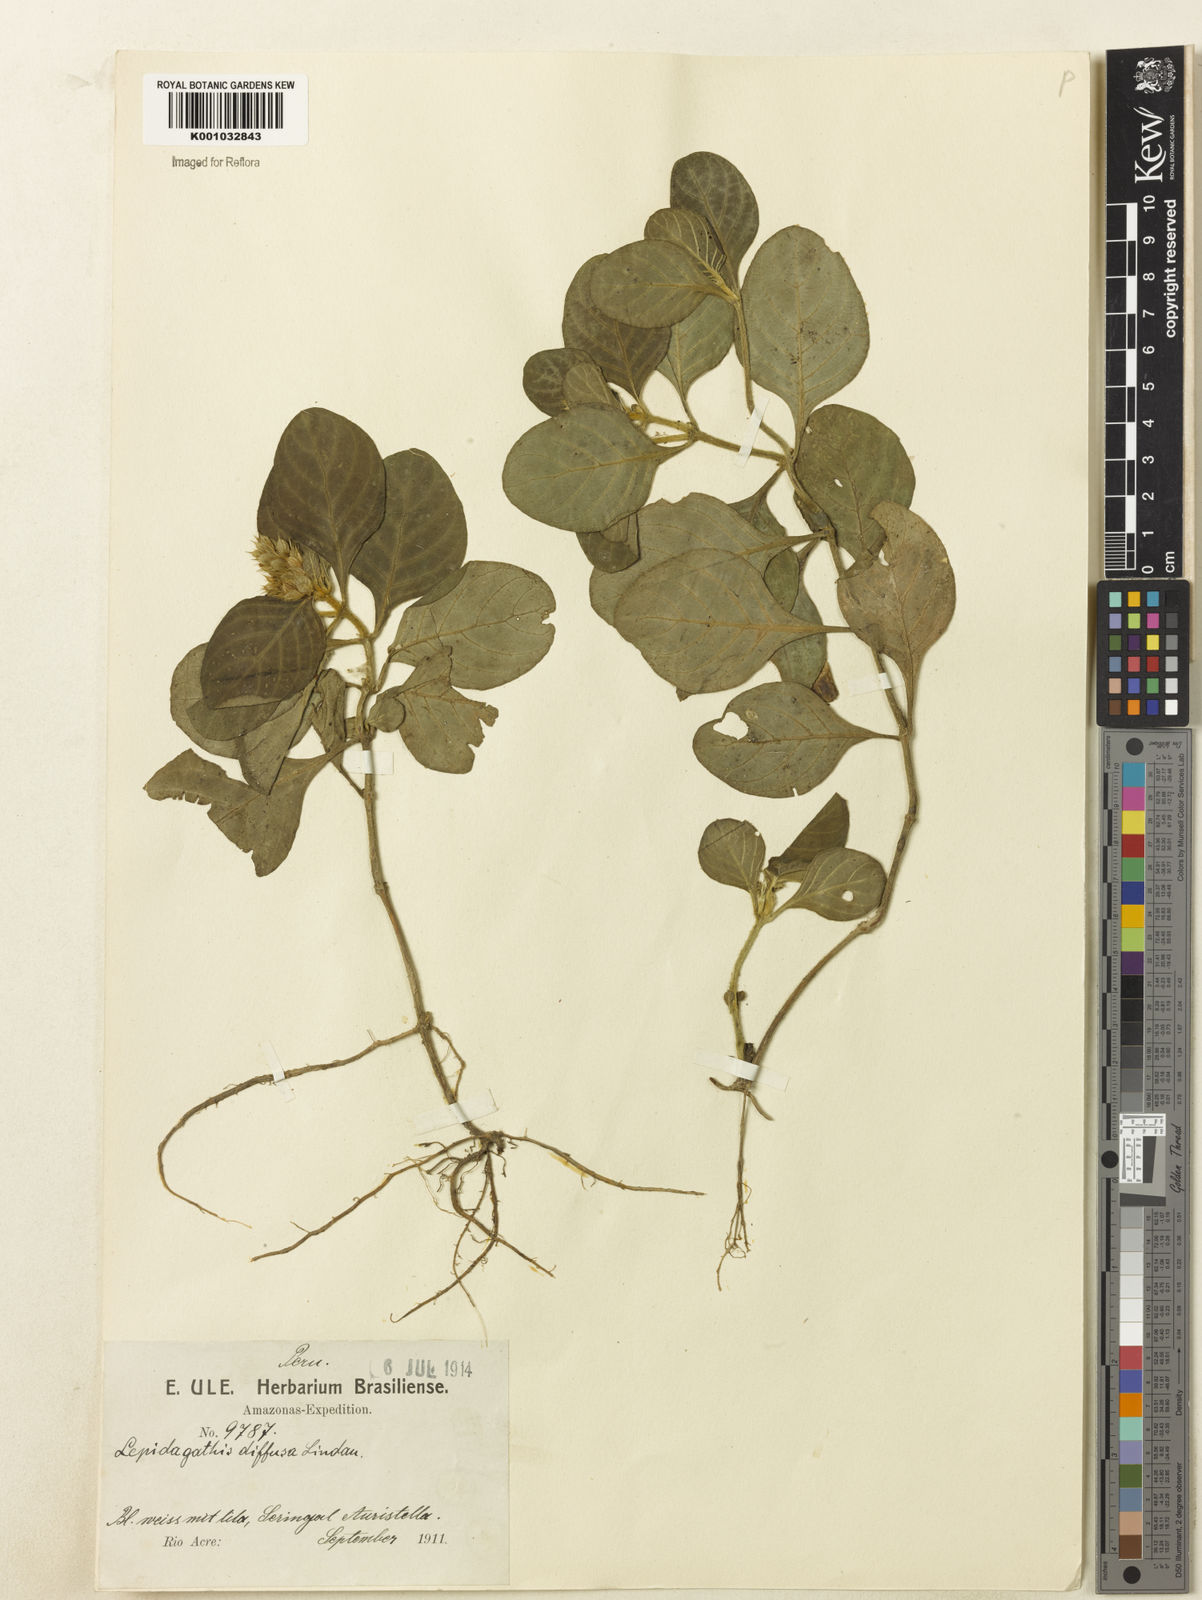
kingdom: Plantae
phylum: Tracheophyta
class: Magnoliopsida
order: Lamiales
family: Acanthaceae
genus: Lepidagathis
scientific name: Lepidagathis
